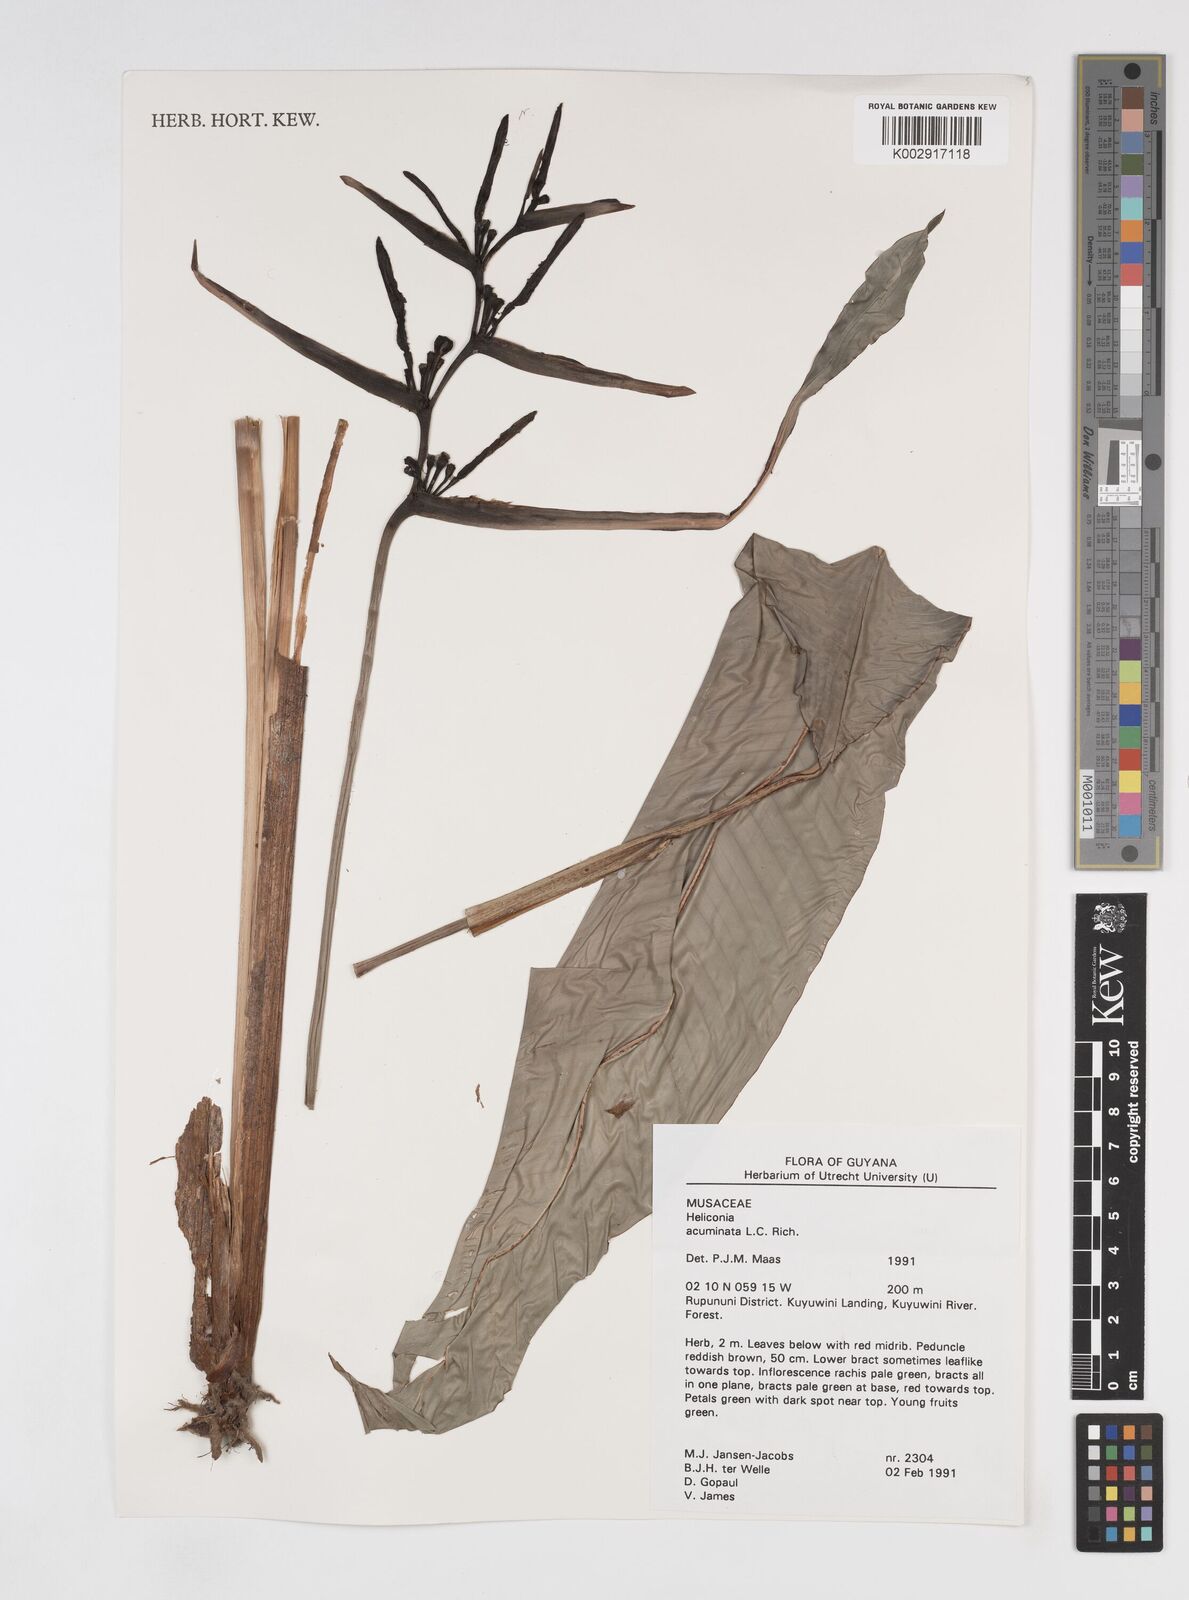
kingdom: Plantae
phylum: Tracheophyta
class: Liliopsida
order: Zingiberales
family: Heliconiaceae
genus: Heliconia
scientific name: Heliconia acuminata
